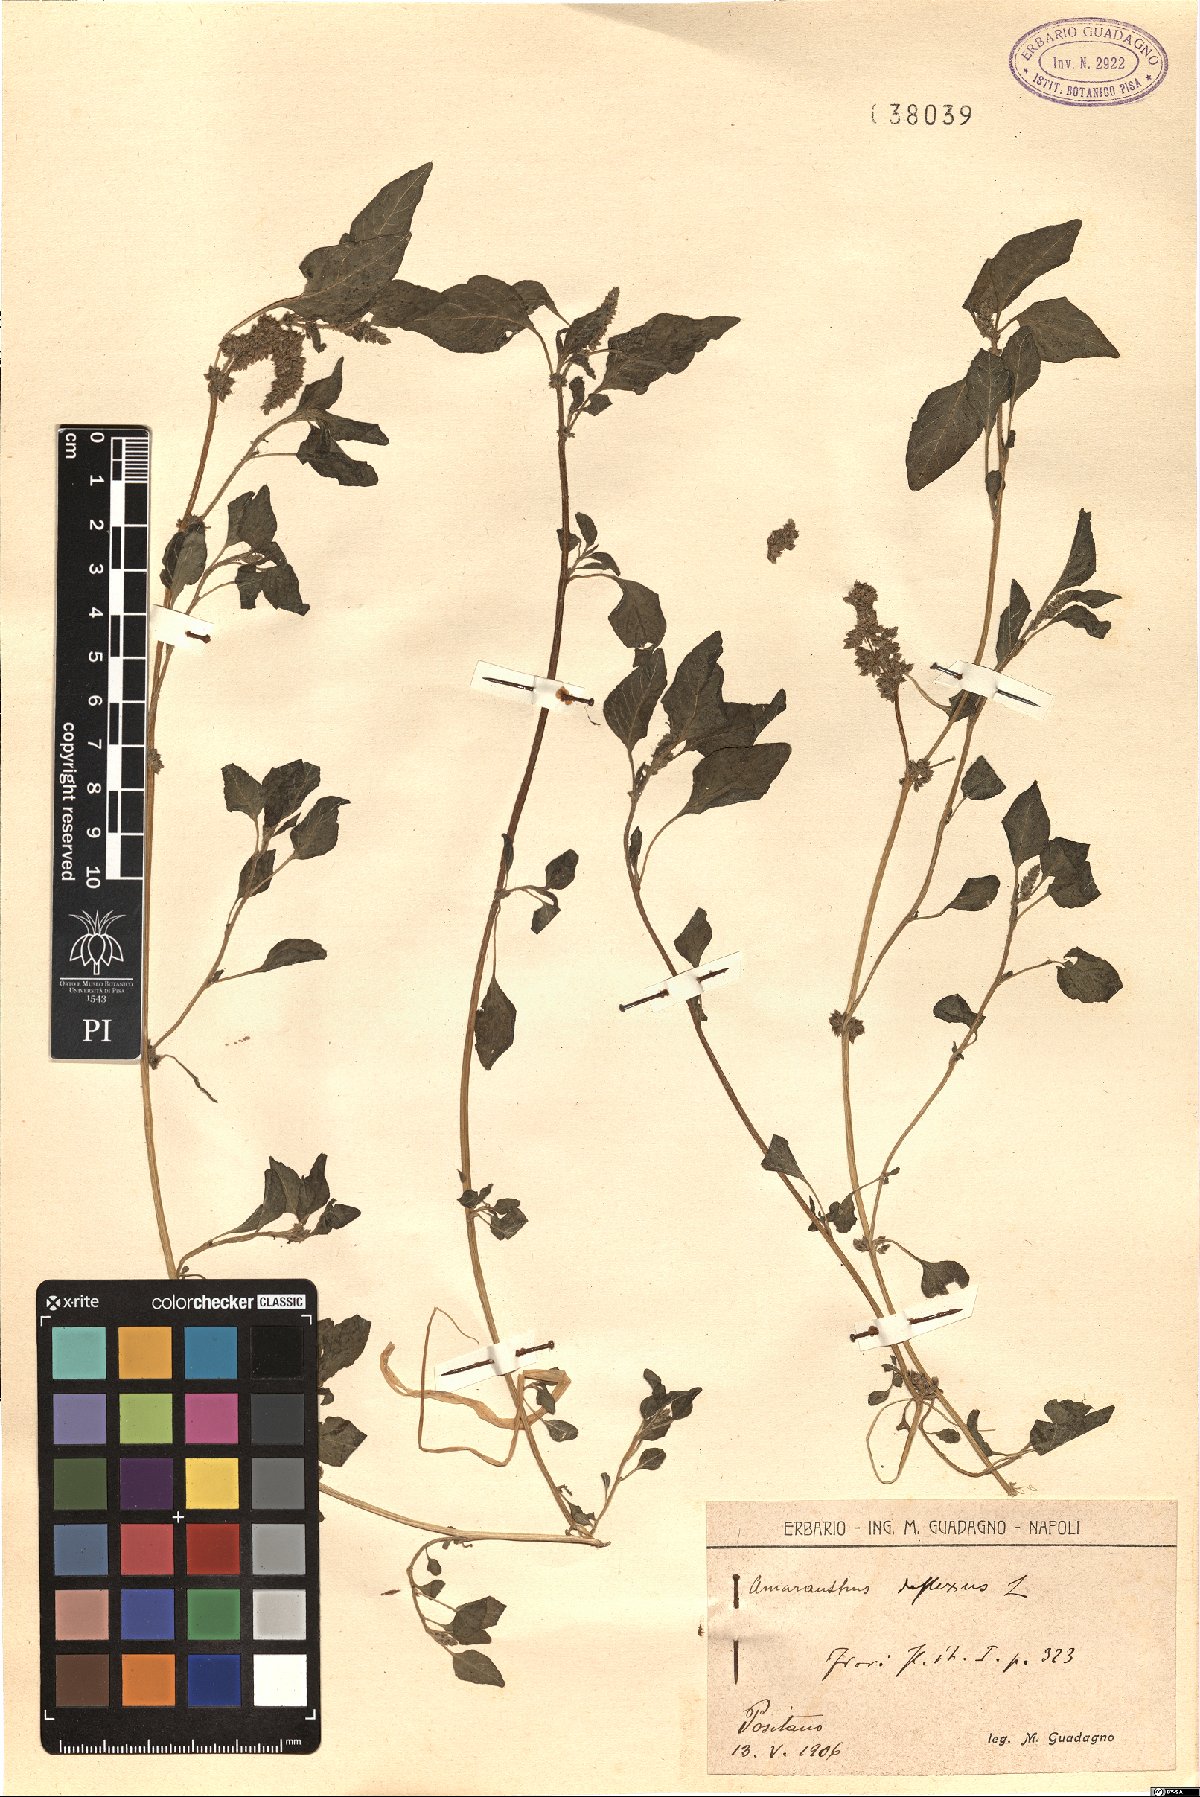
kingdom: Plantae
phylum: Tracheophyta
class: Magnoliopsida
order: Caryophyllales
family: Amaranthaceae
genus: Amaranthus
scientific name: Amaranthus deflexus
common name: Perennial pigweed
